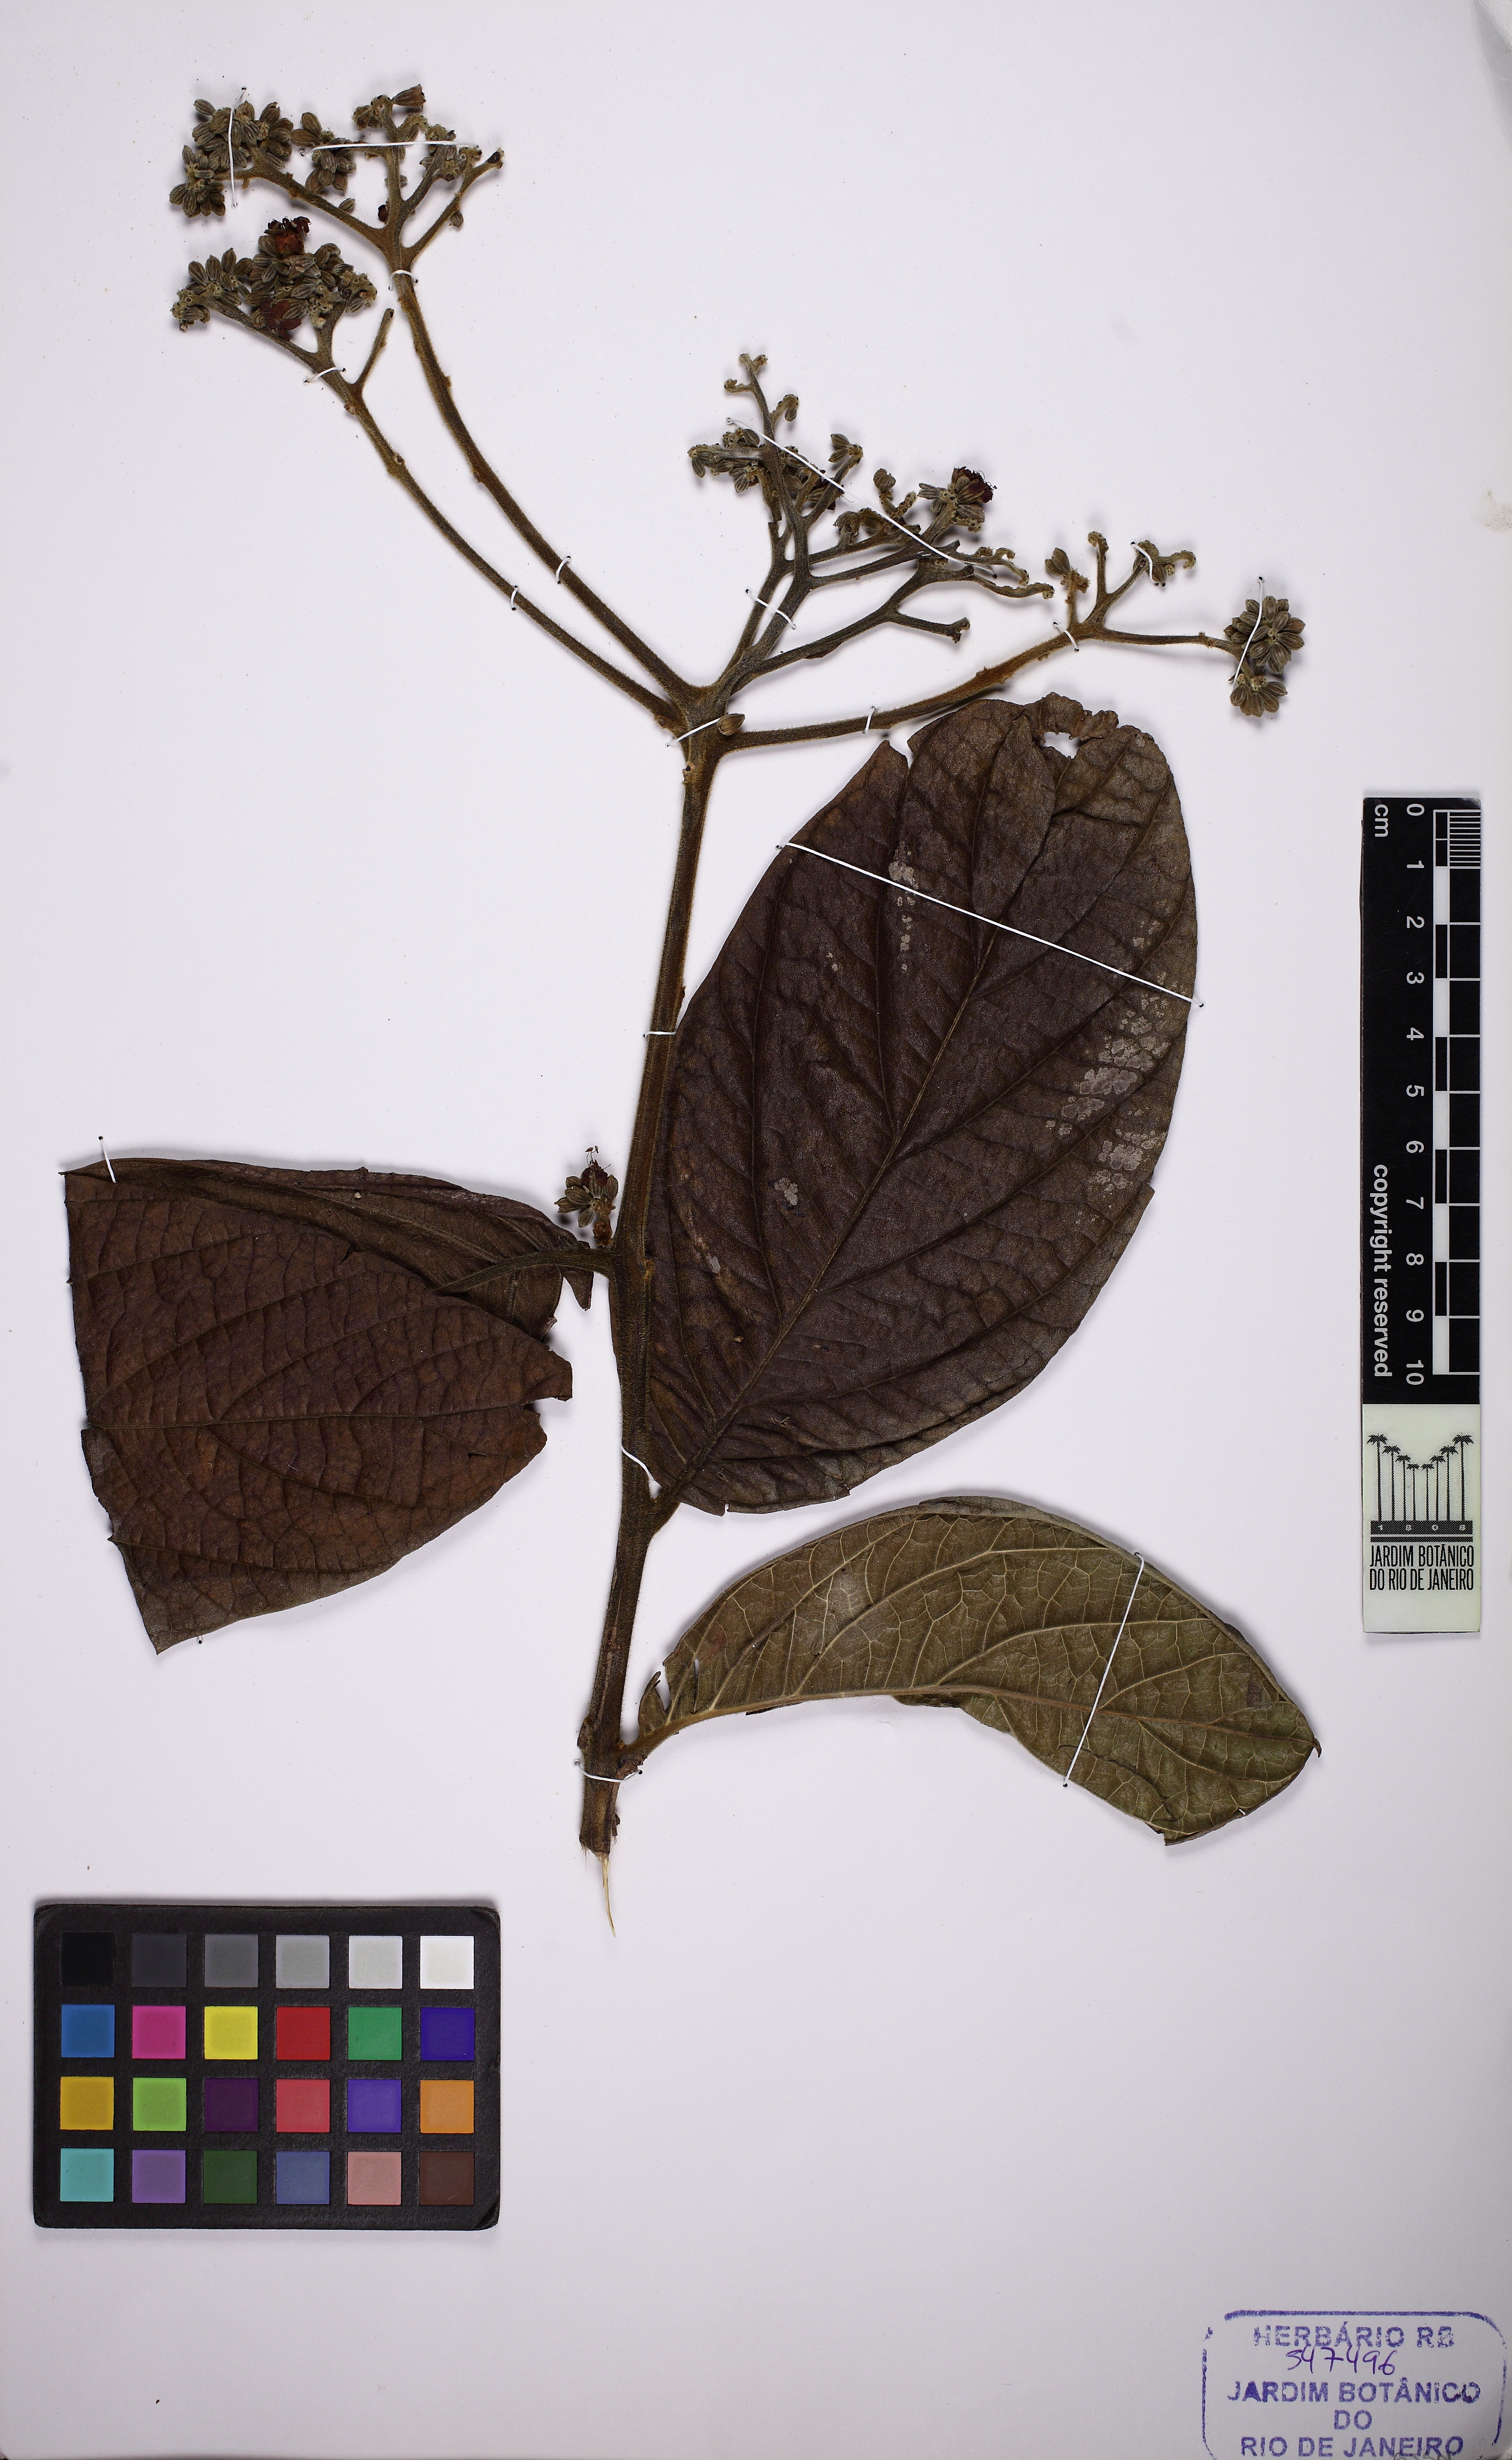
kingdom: Plantae
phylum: Tracheophyta
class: Magnoliopsida
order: Boraginales
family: Cordiaceae
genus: Cordia
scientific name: Cordia trichoclada
